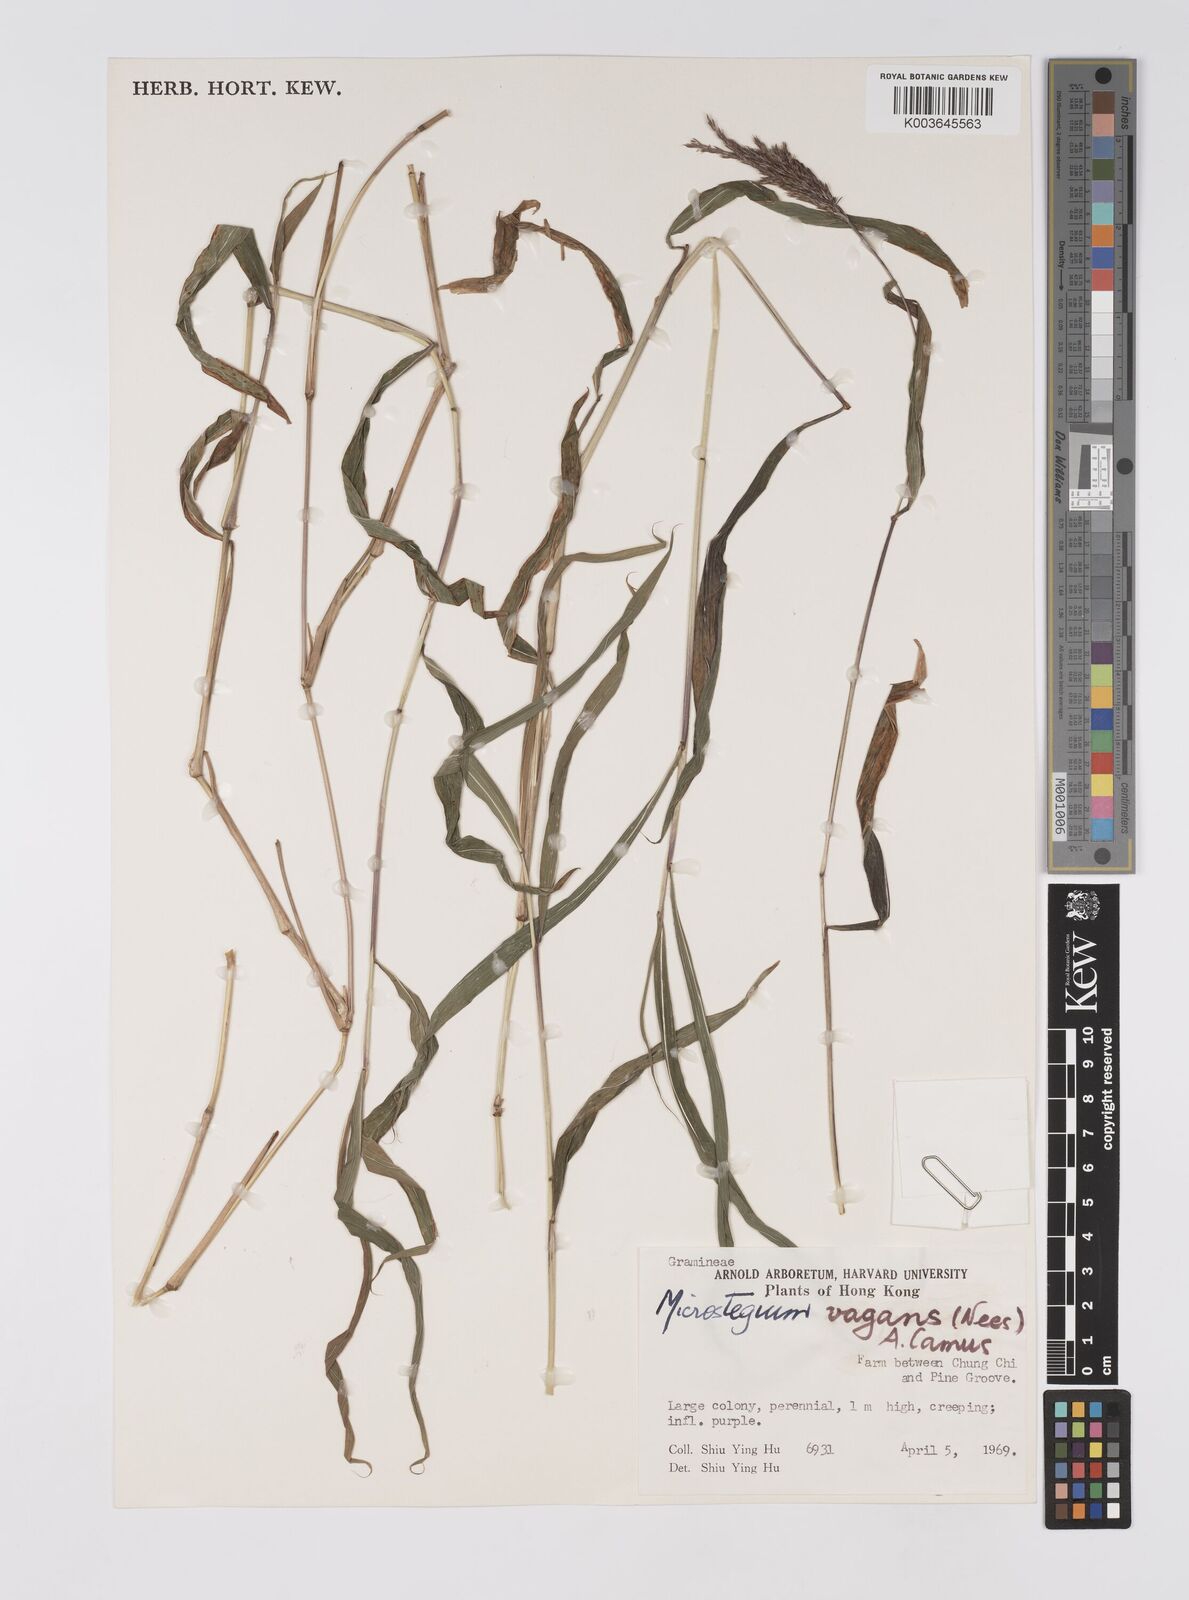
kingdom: Plantae
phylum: Tracheophyta
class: Liliopsida
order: Poales
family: Poaceae
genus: Microstegium
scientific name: Microstegium fasciculatum
